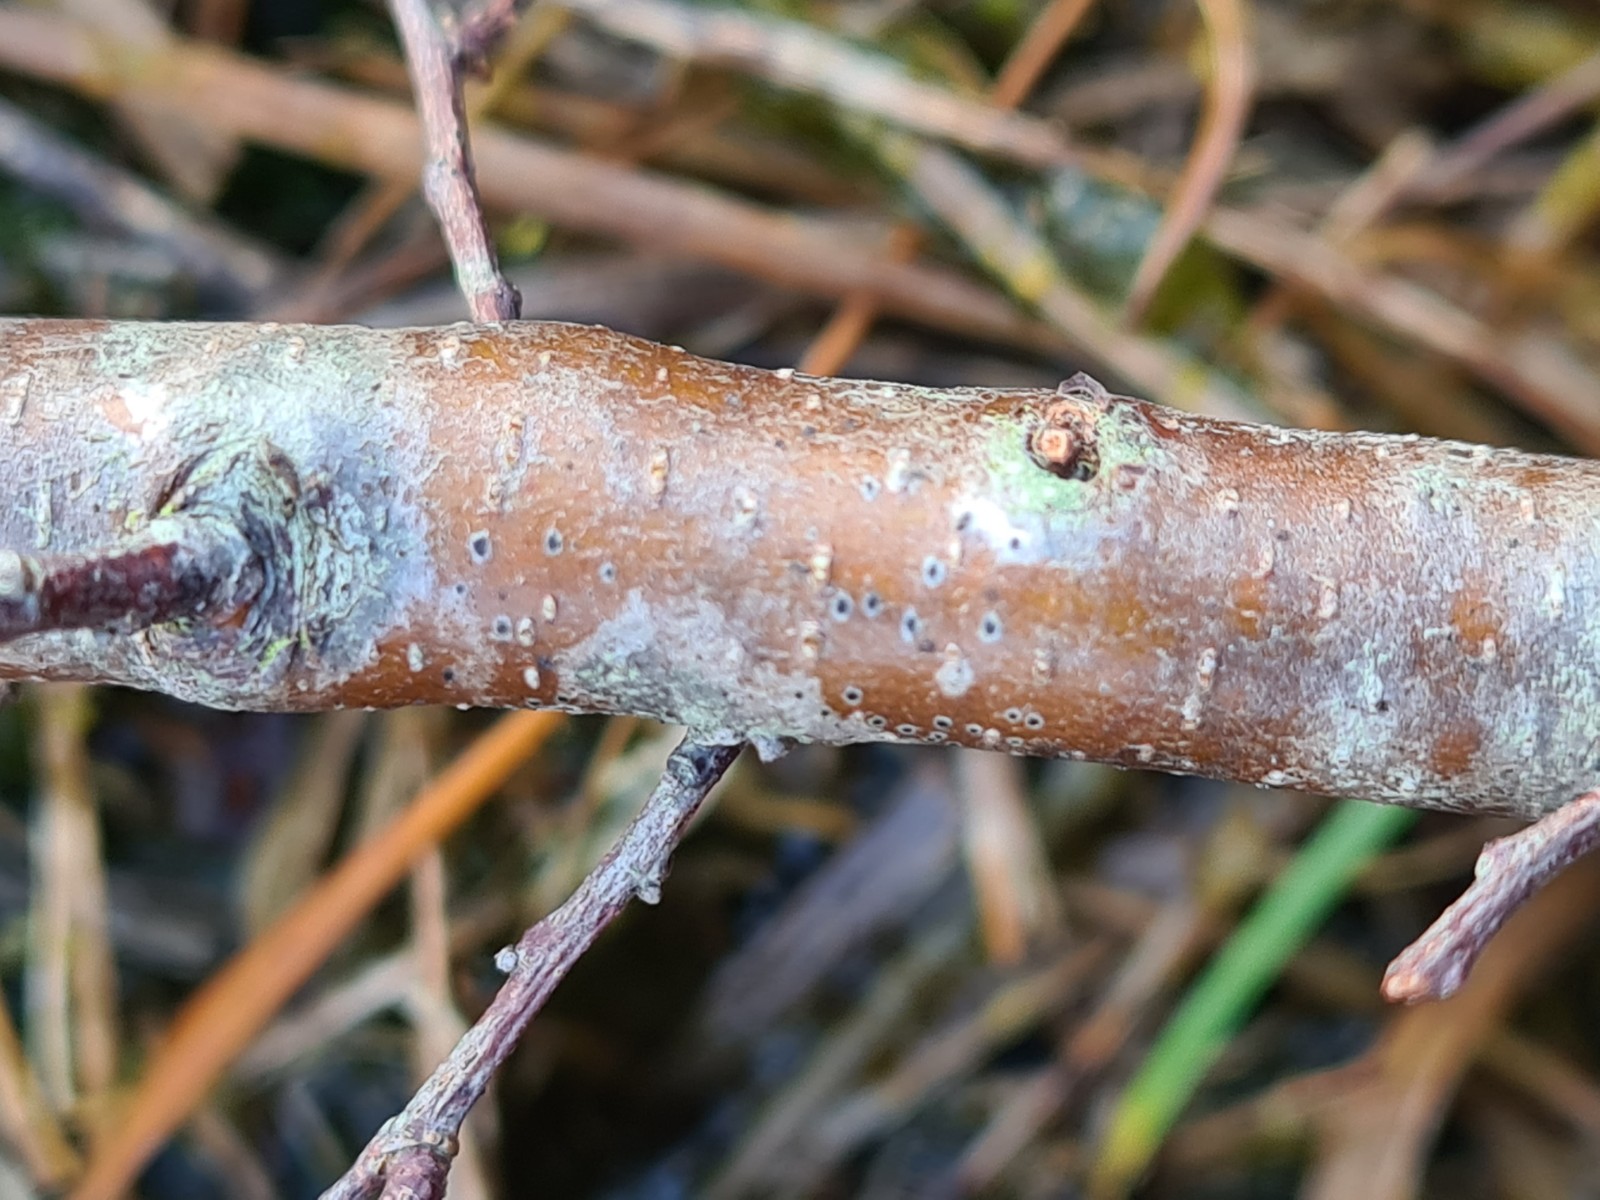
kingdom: Fungi
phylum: Ascomycota
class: Dothideomycetes
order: Dothideales
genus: Mycoglaena
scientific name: Mycoglaena myricae
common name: liden porsprik
